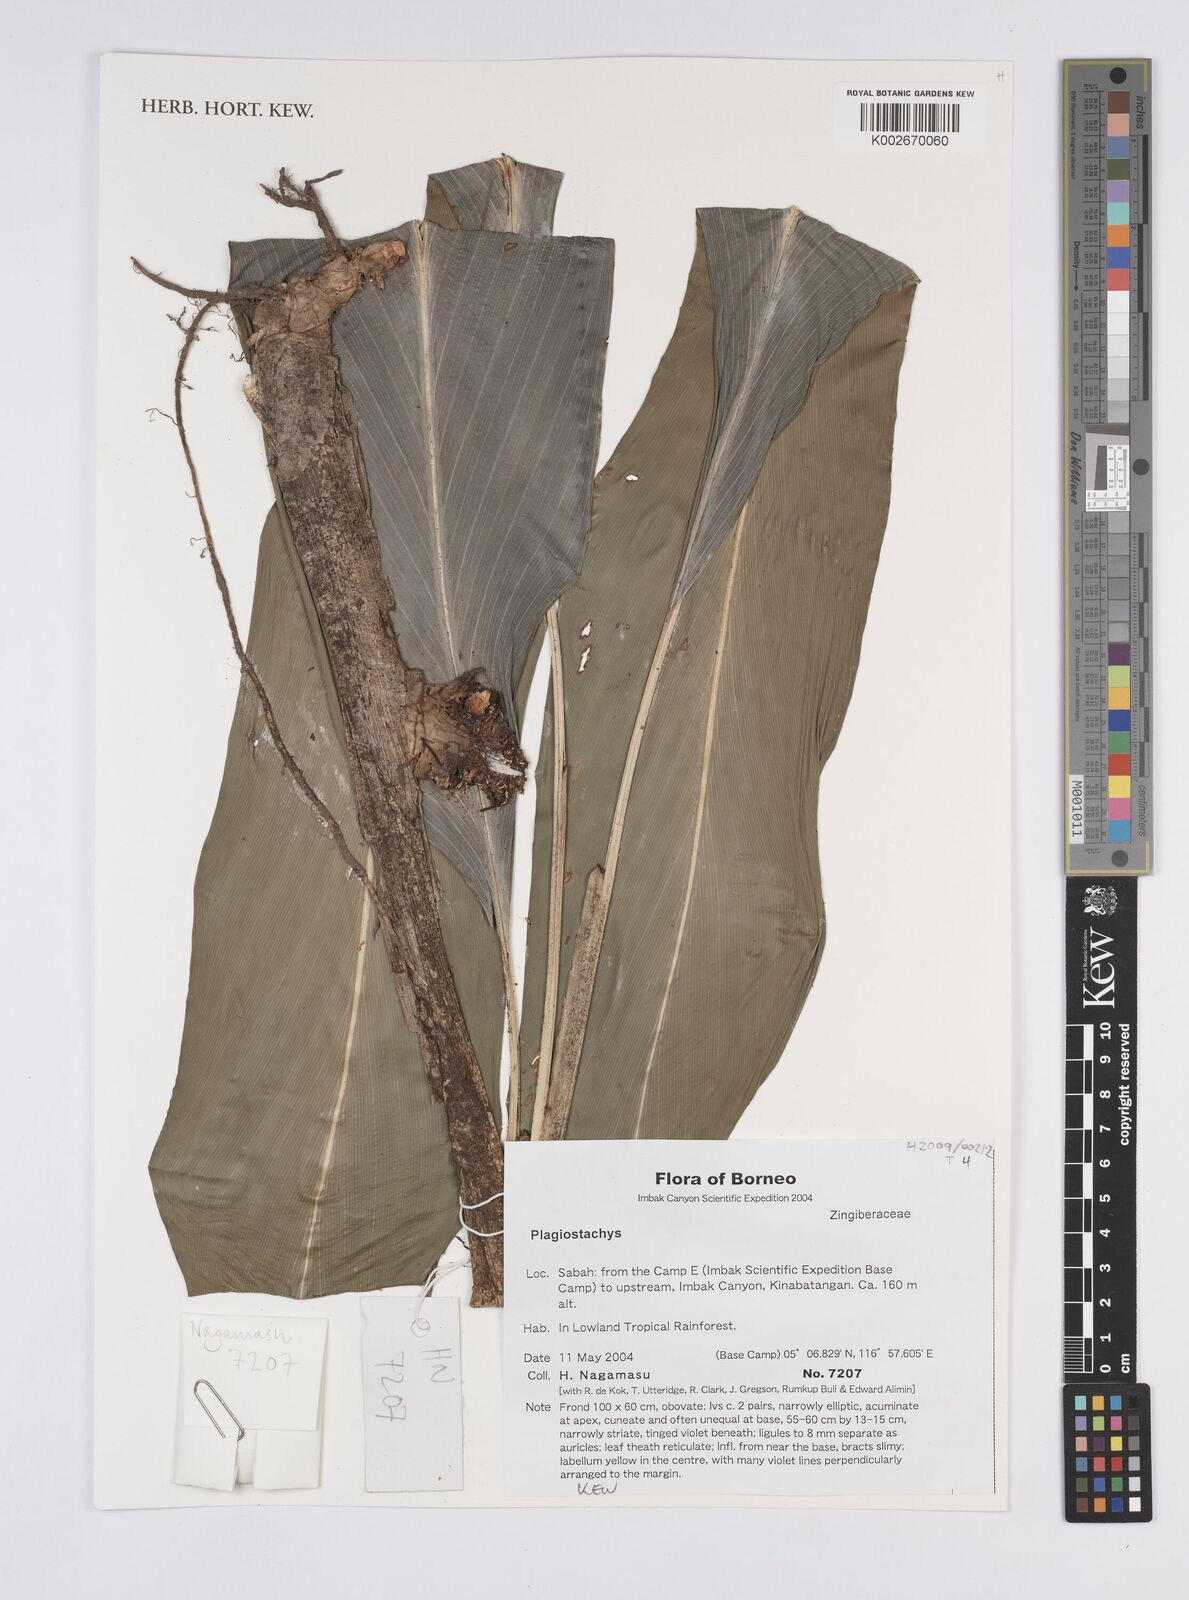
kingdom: Plantae
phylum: Tracheophyta
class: Liliopsida
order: Zingiberales
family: Zingiberaceae
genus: Plagiostachys
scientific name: Plagiostachys
